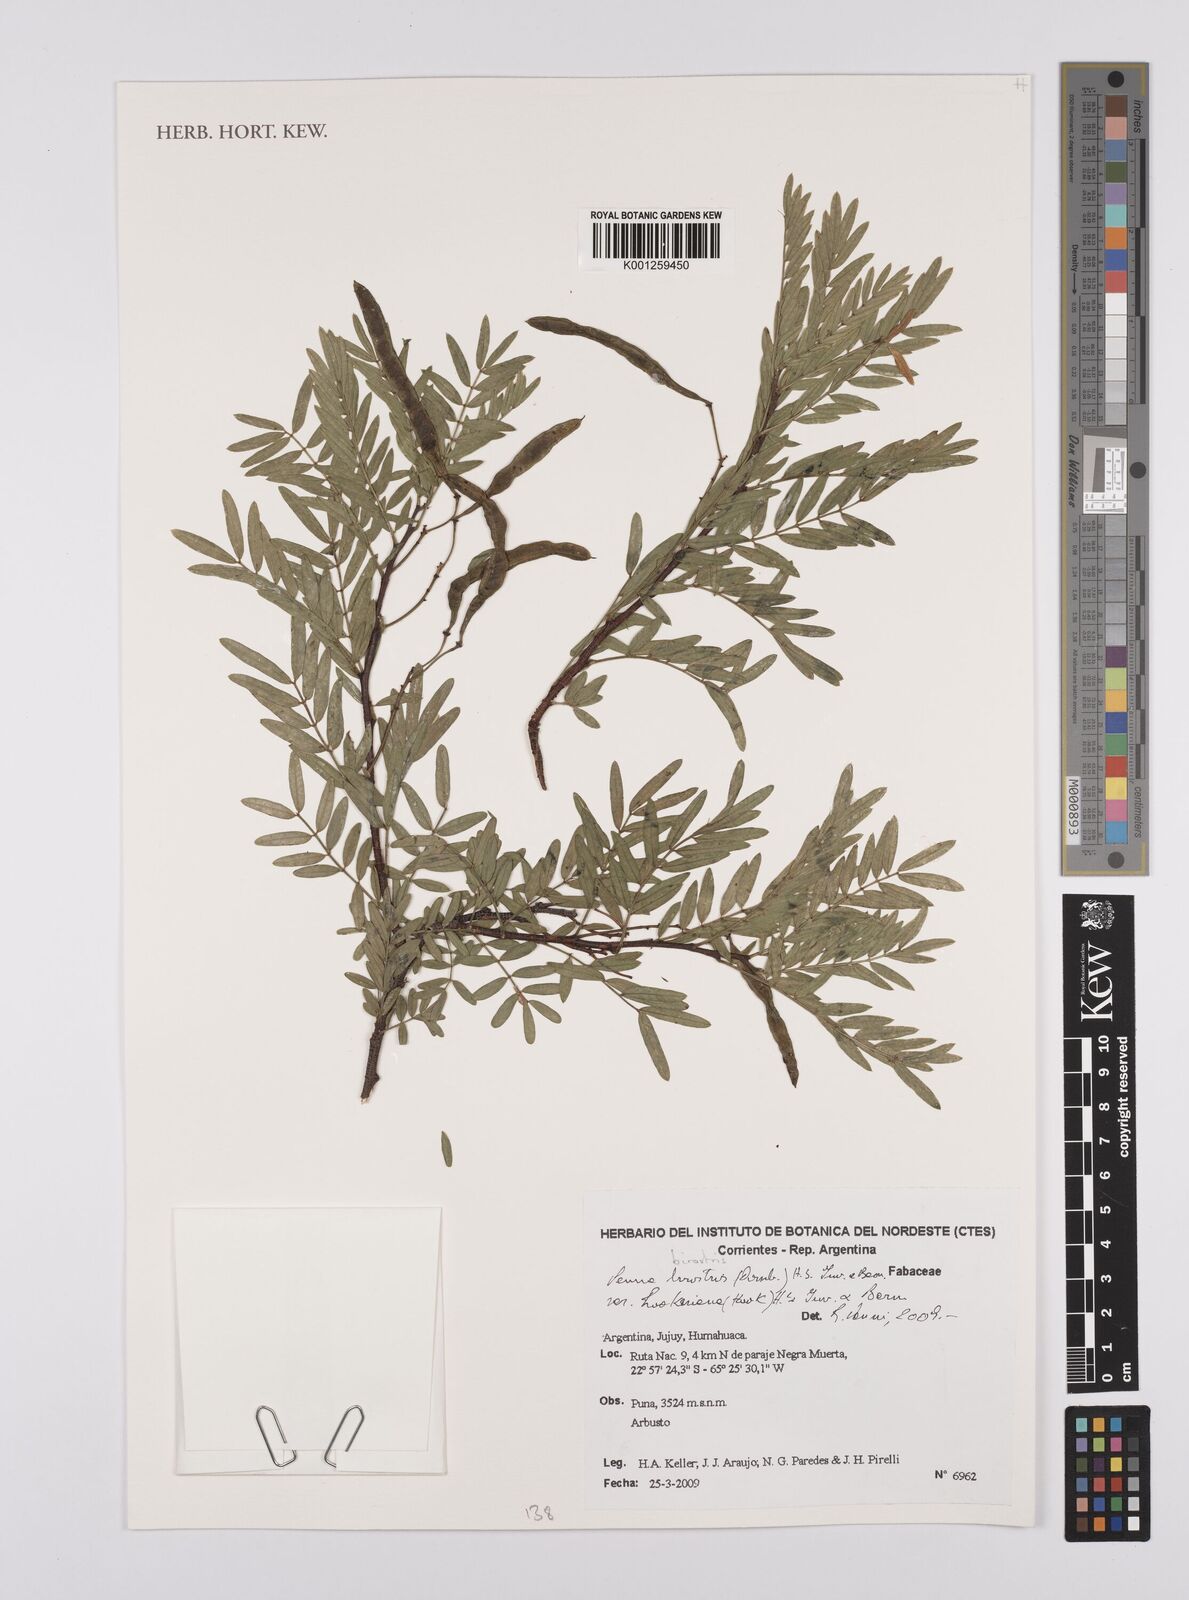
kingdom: Plantae
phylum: Tracheophyta
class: Magnoliopsida
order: Fabales
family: Fabaceae
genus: Senna
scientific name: Senna birostris
